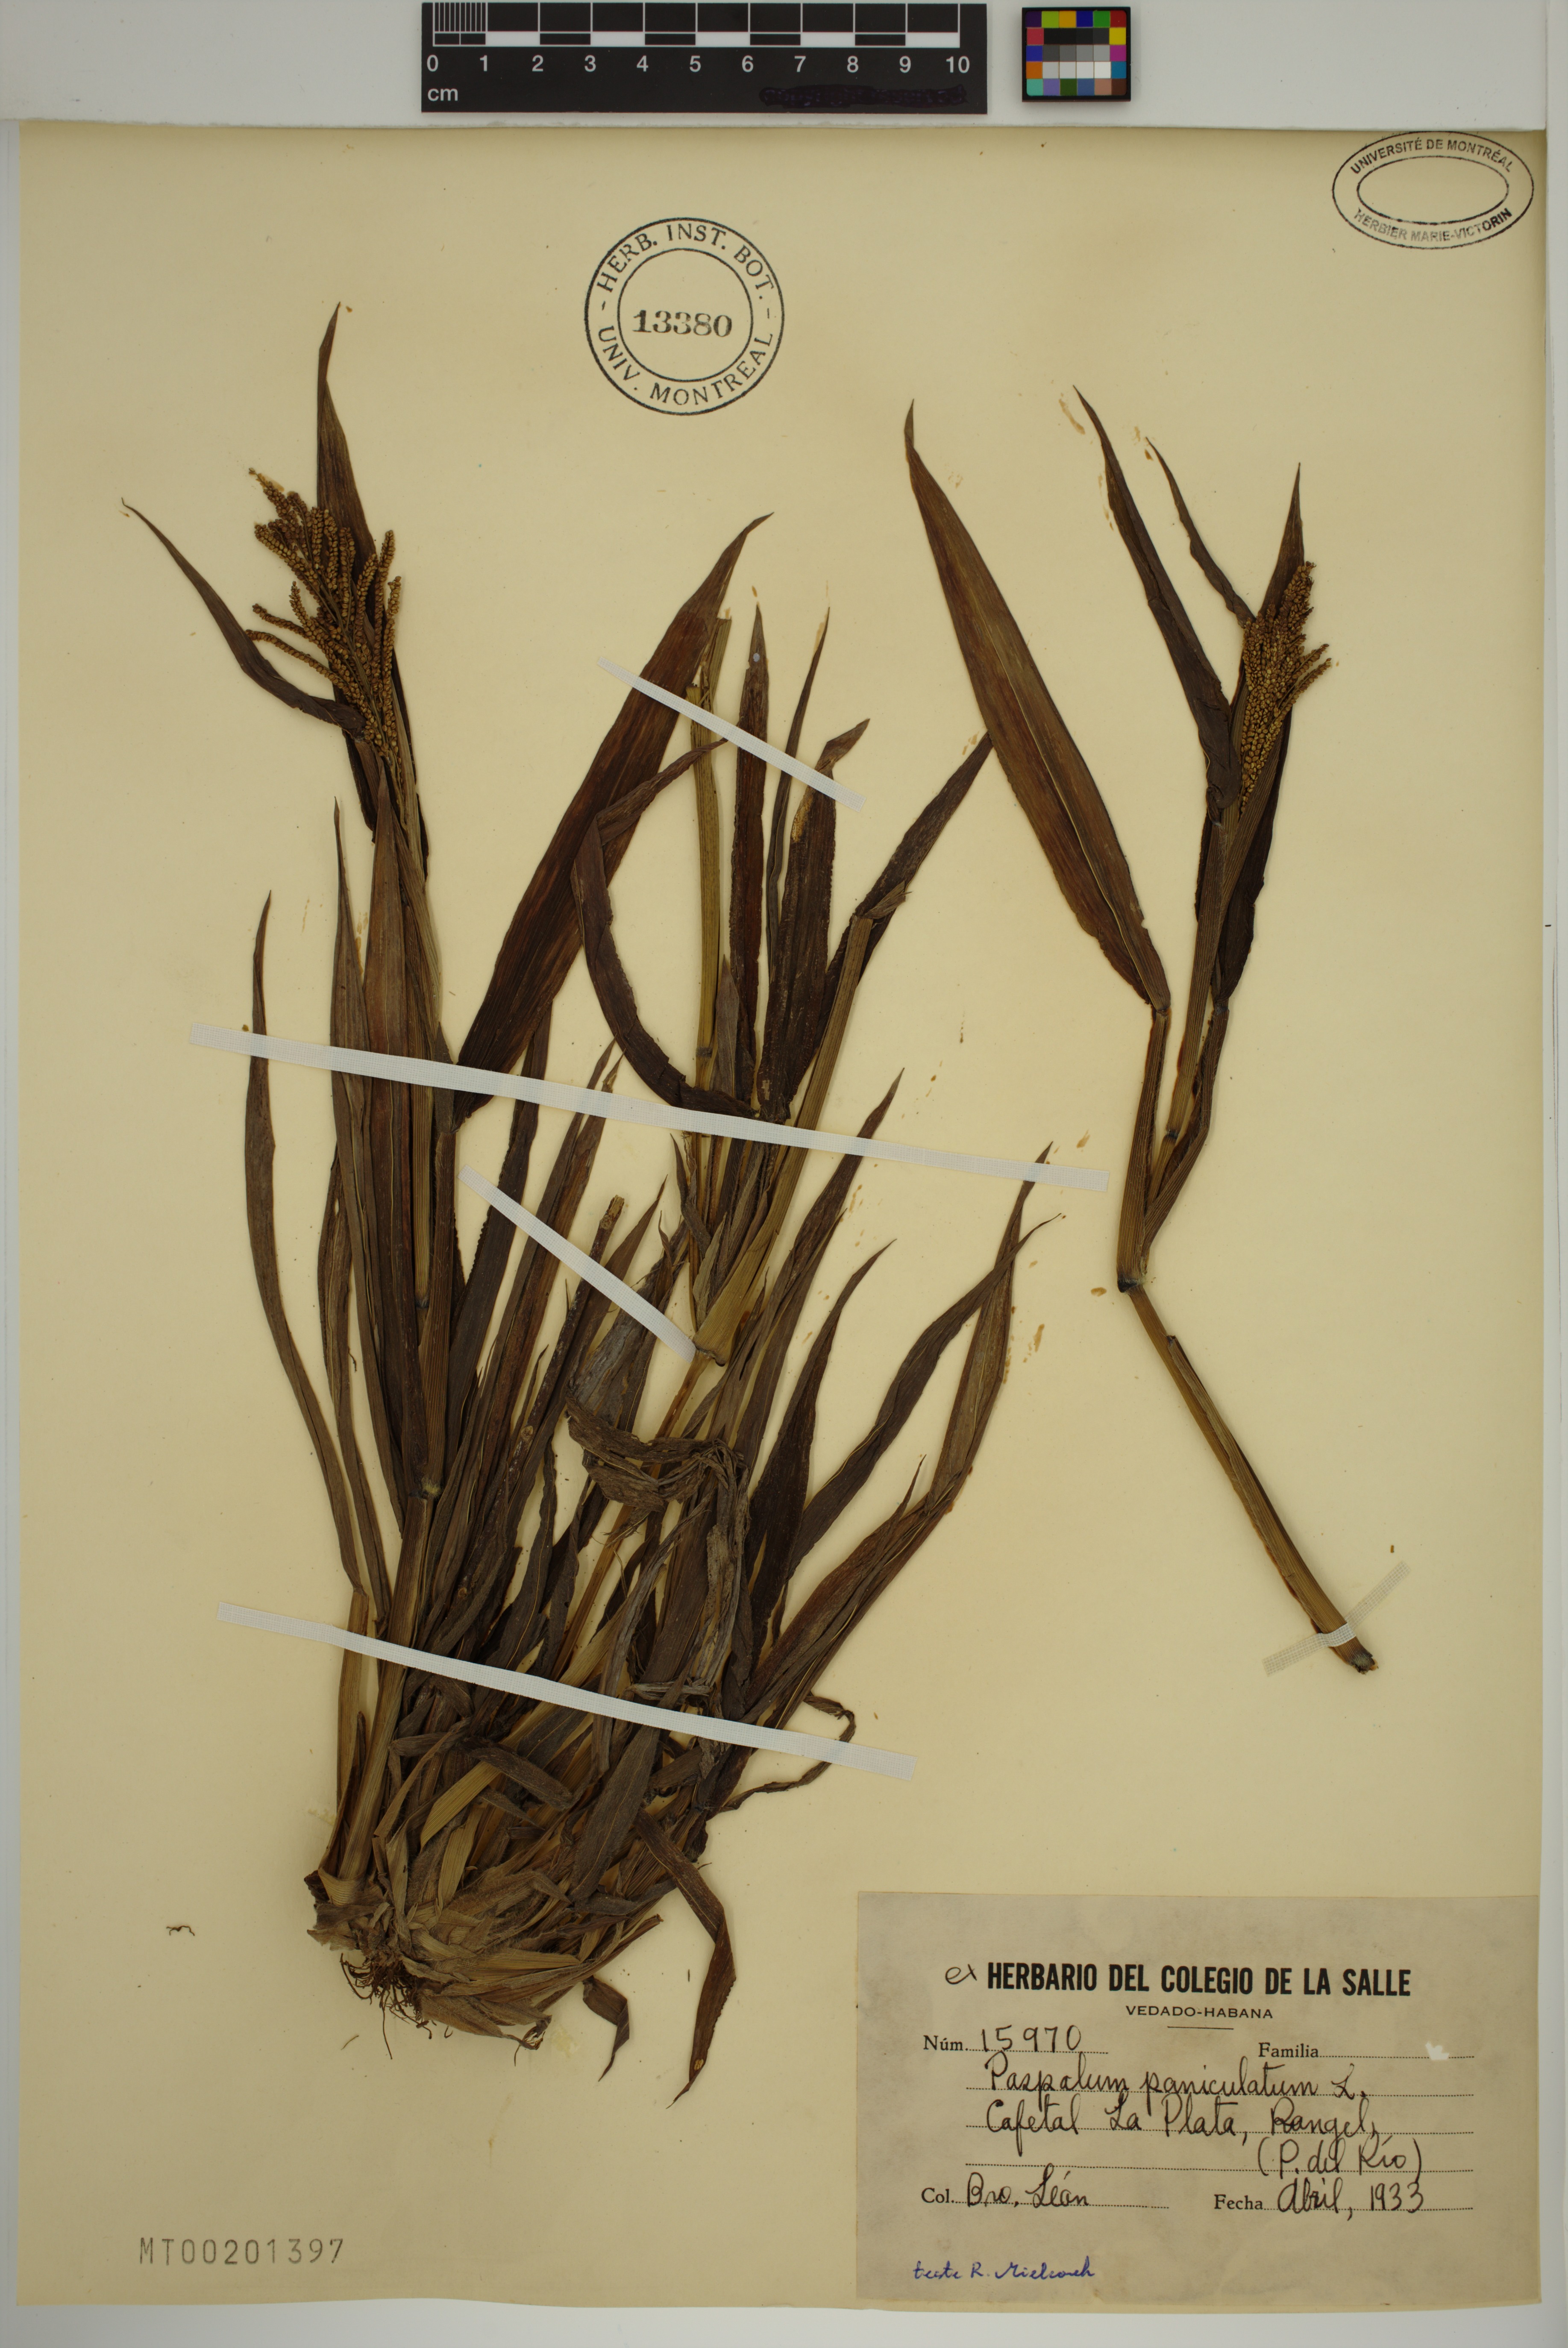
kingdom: Plantae
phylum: Tracheophyta
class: Liliopsida
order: Poales
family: Poaceae
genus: Paspalum
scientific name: Paspalum paniculatum
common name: Arrocillo
